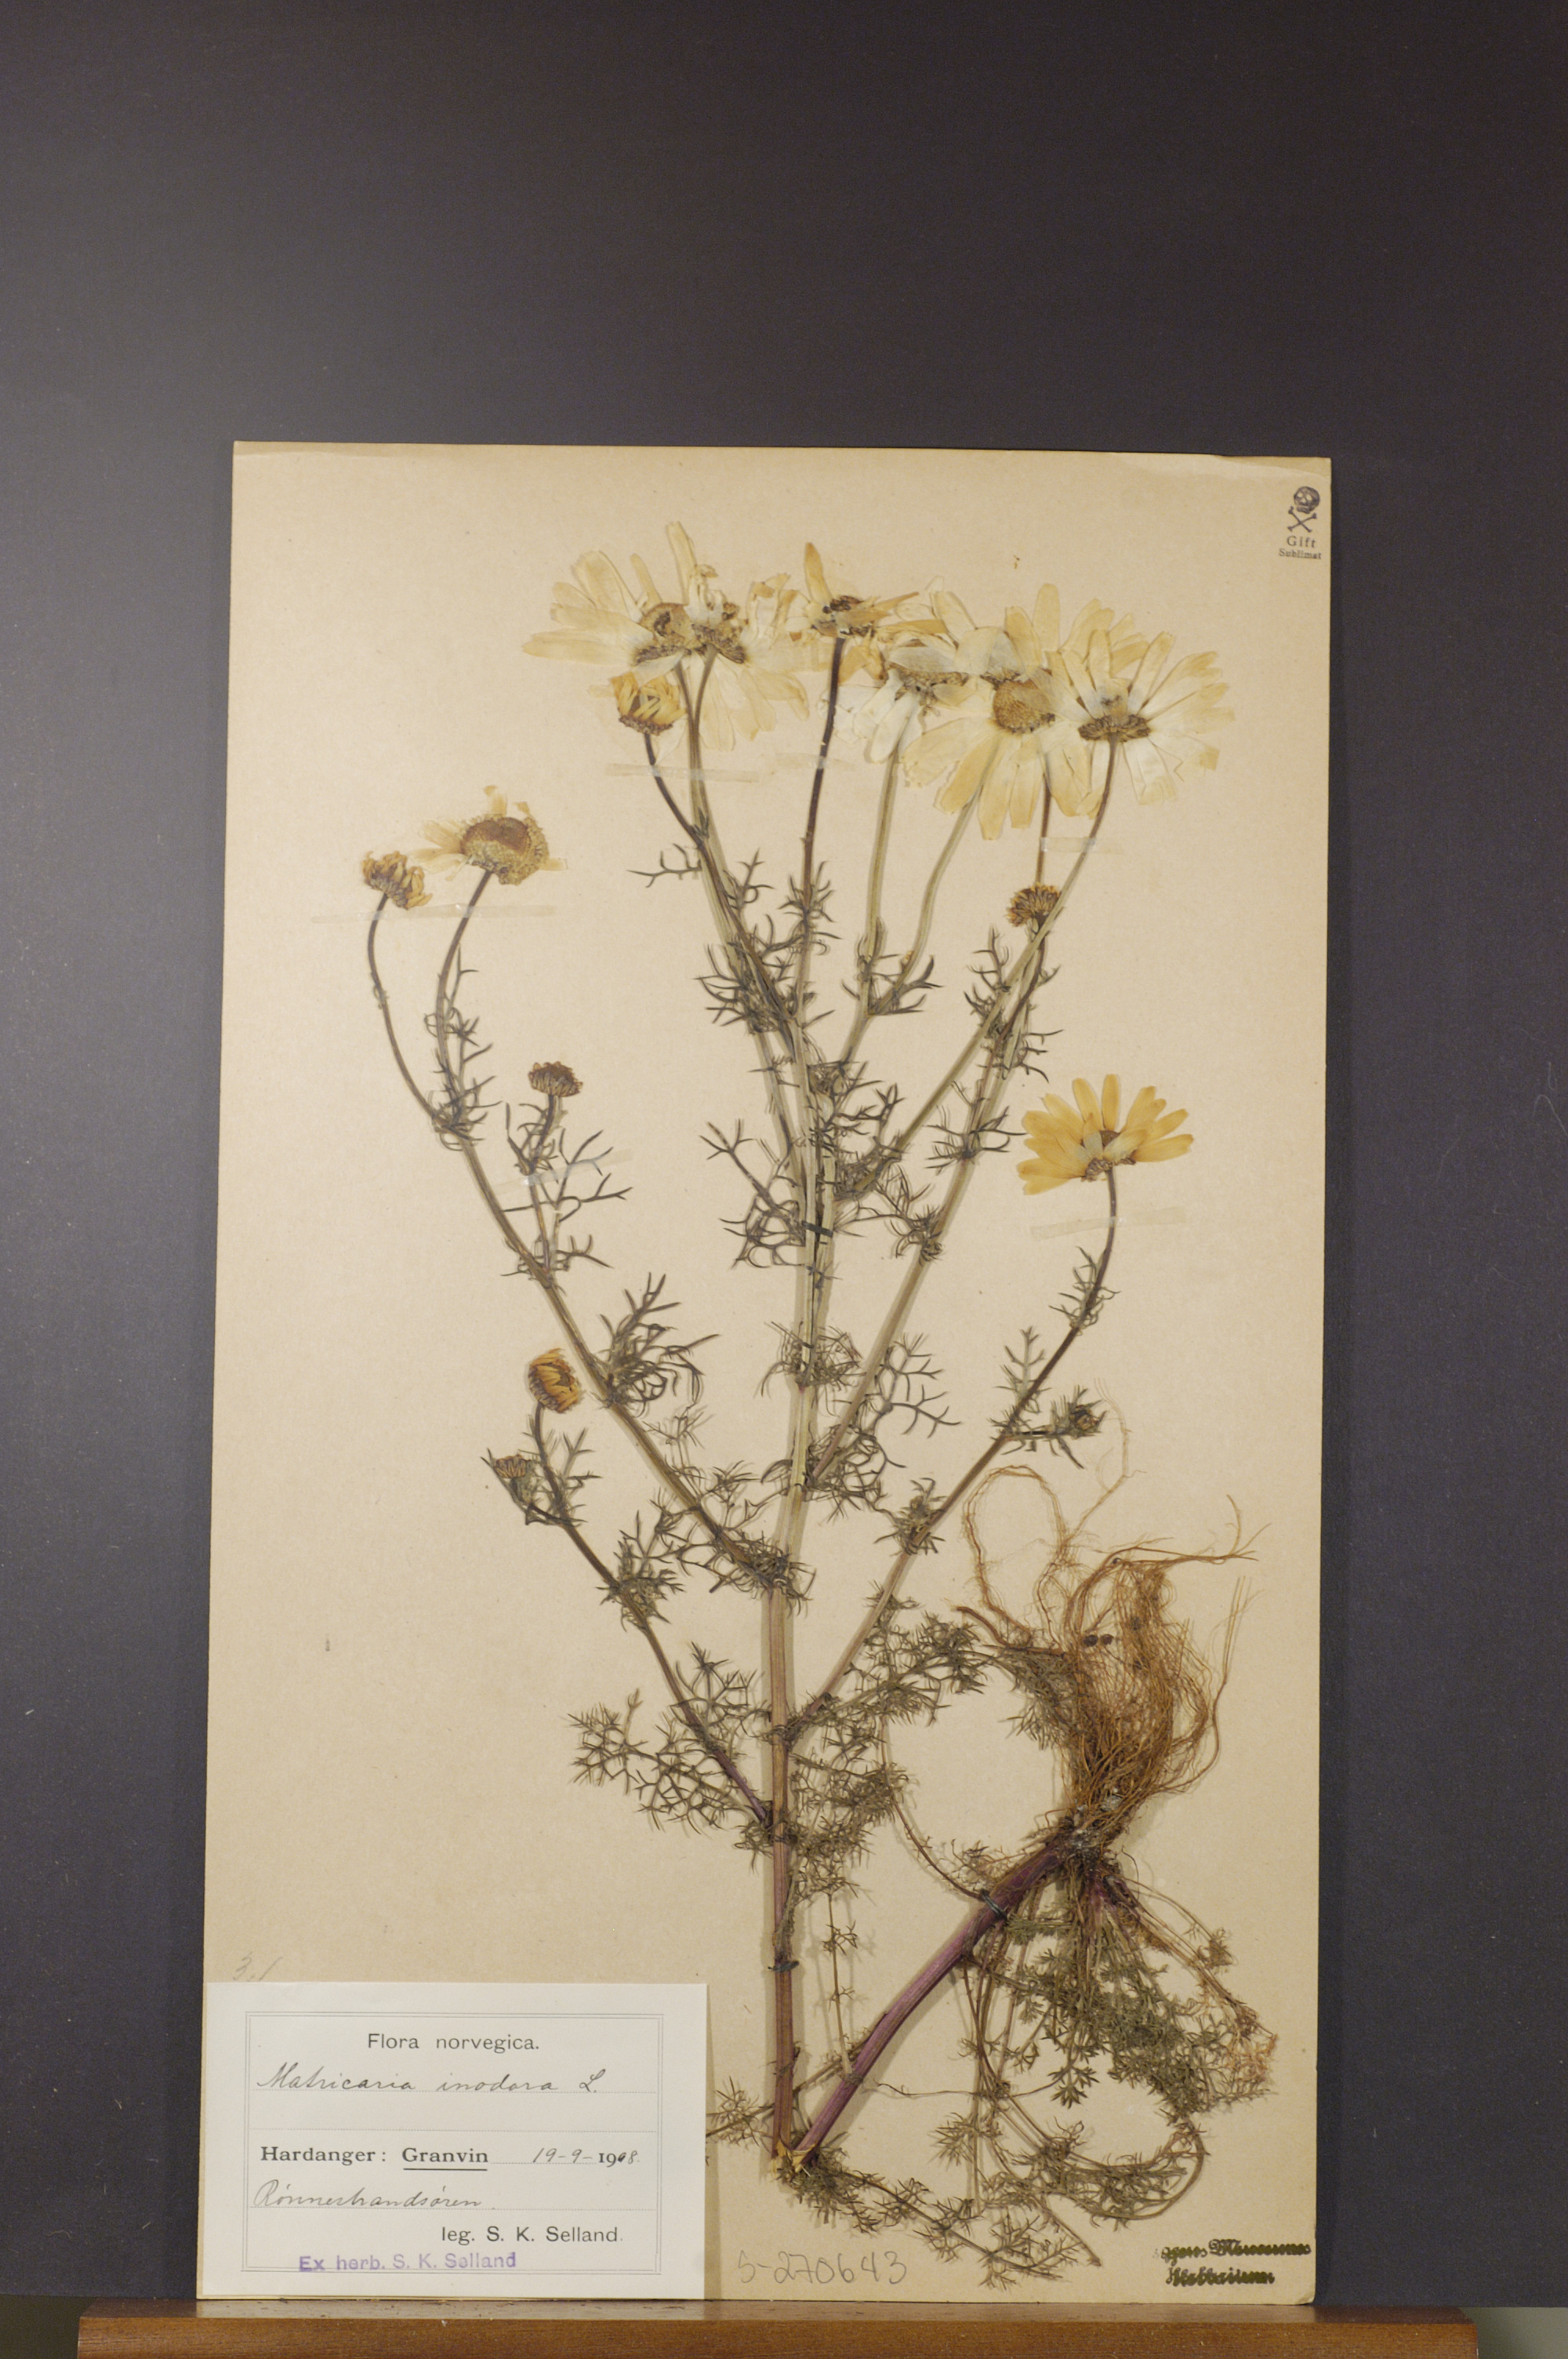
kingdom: Plantae
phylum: Tracheophyta
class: Magnoliopsida
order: Asterales
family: Asteraceae
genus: Tripleurospermum
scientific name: Tripleurospermum maritimum
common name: Sea mayweed
